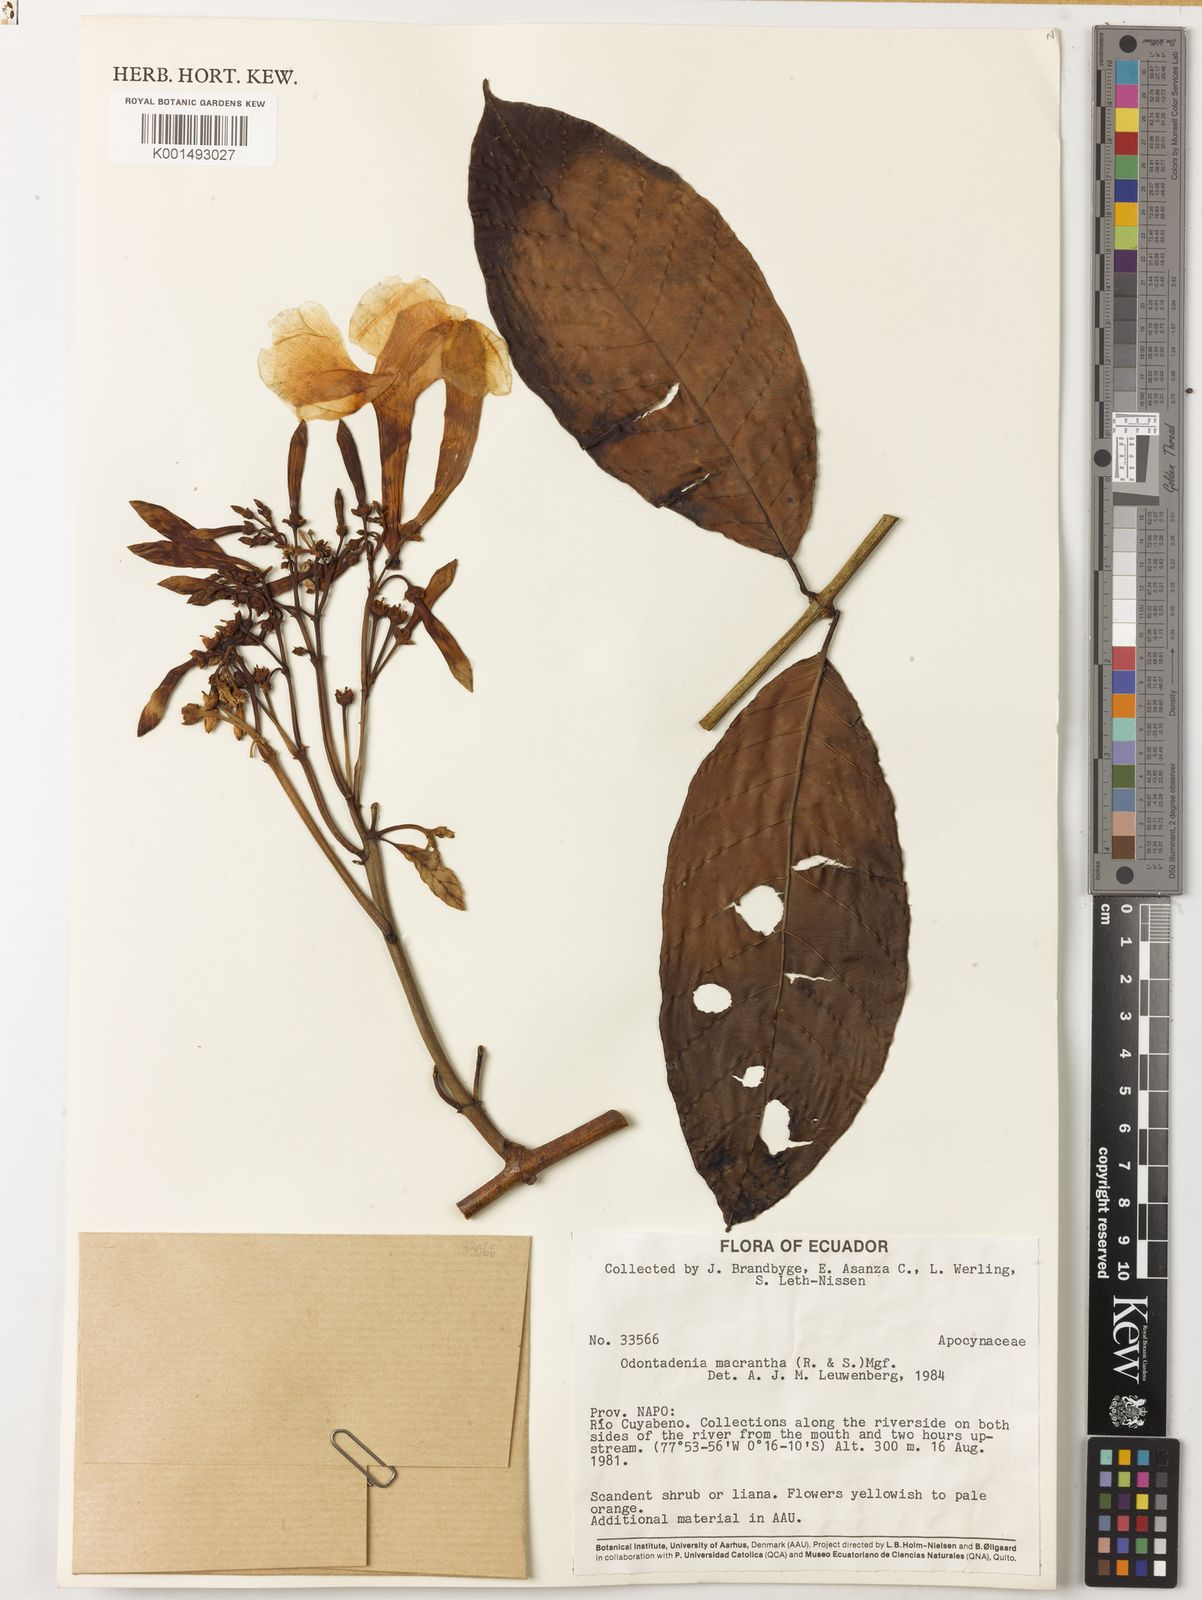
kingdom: Plantae
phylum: Tracheophyta
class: Magnoliopsida
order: Gentianales
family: Apocynaceae
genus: Odontadenia
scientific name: Odontadenia semidigyna
